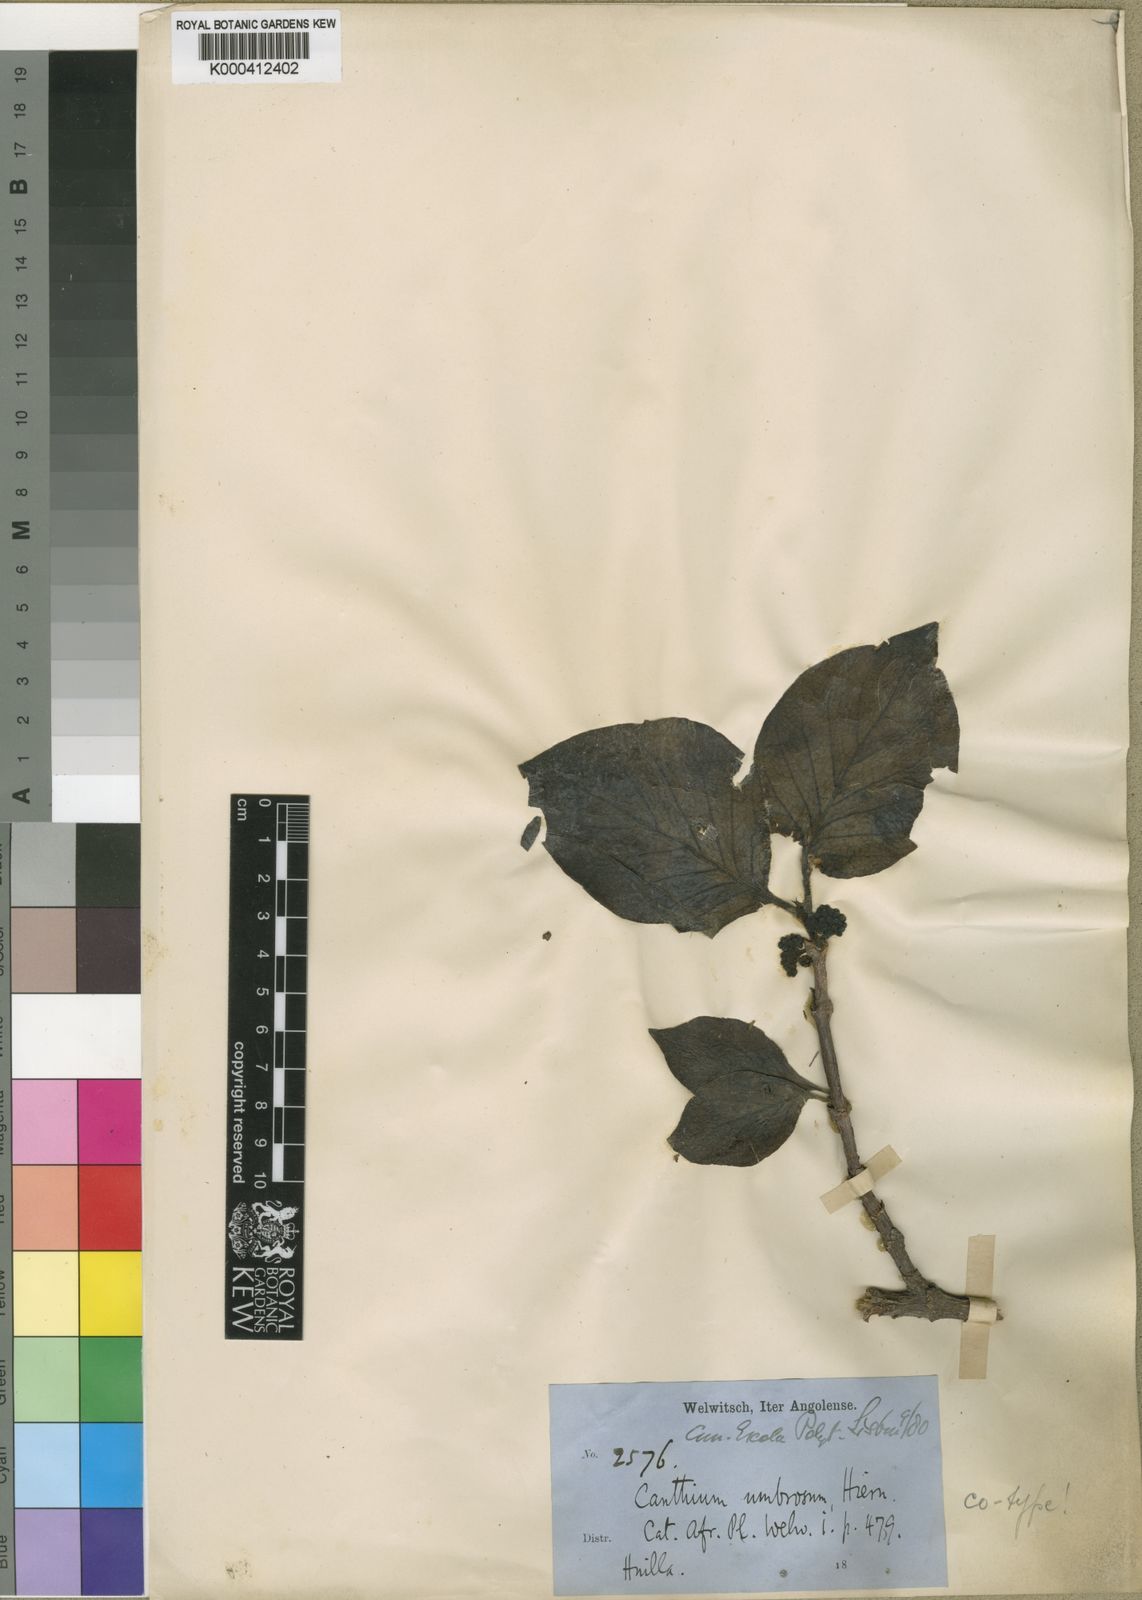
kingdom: Plantae
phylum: Tracheophyta
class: Magnoliopsida
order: Gentianales
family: Rubiaceae
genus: Afrocanthium
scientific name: Afrocanthium lactescens
